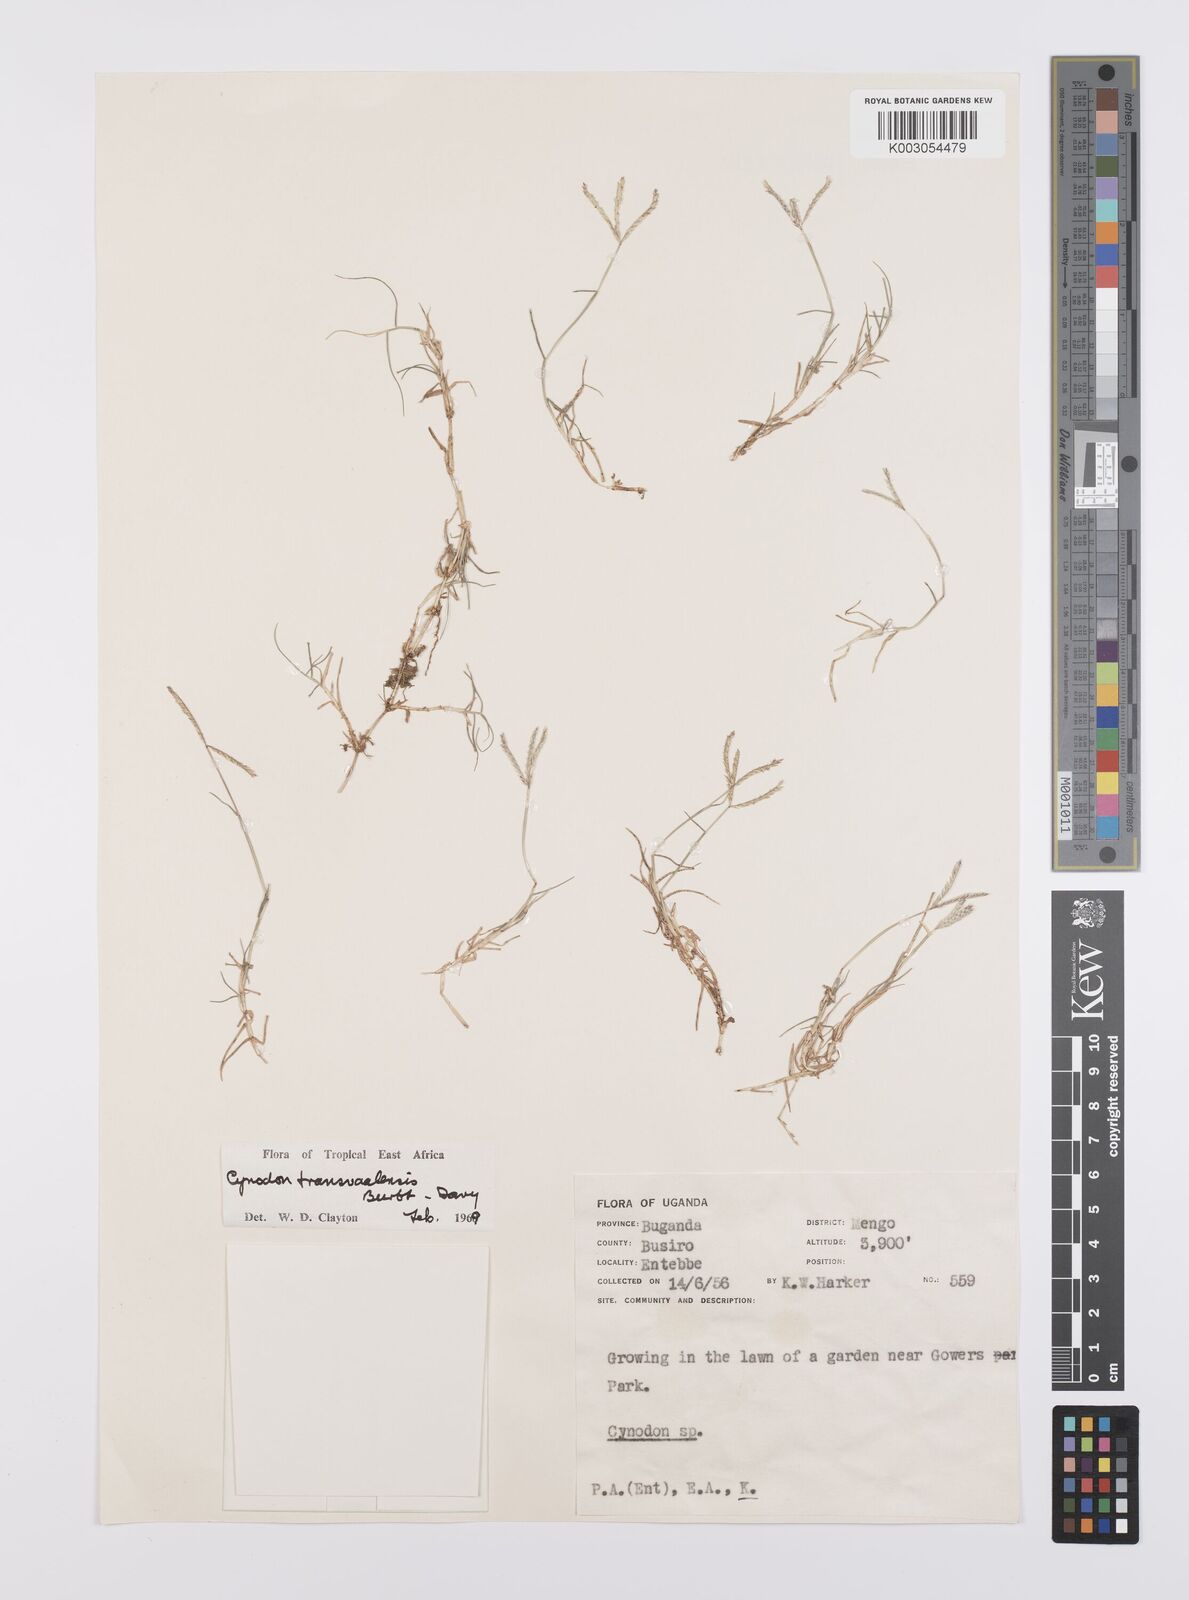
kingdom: Plantae
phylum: Tracheophyta
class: Liliopsida
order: Poales
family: Poaceae
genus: Cynodon
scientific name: Cynodon transvaalensis
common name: African bermuda grass
